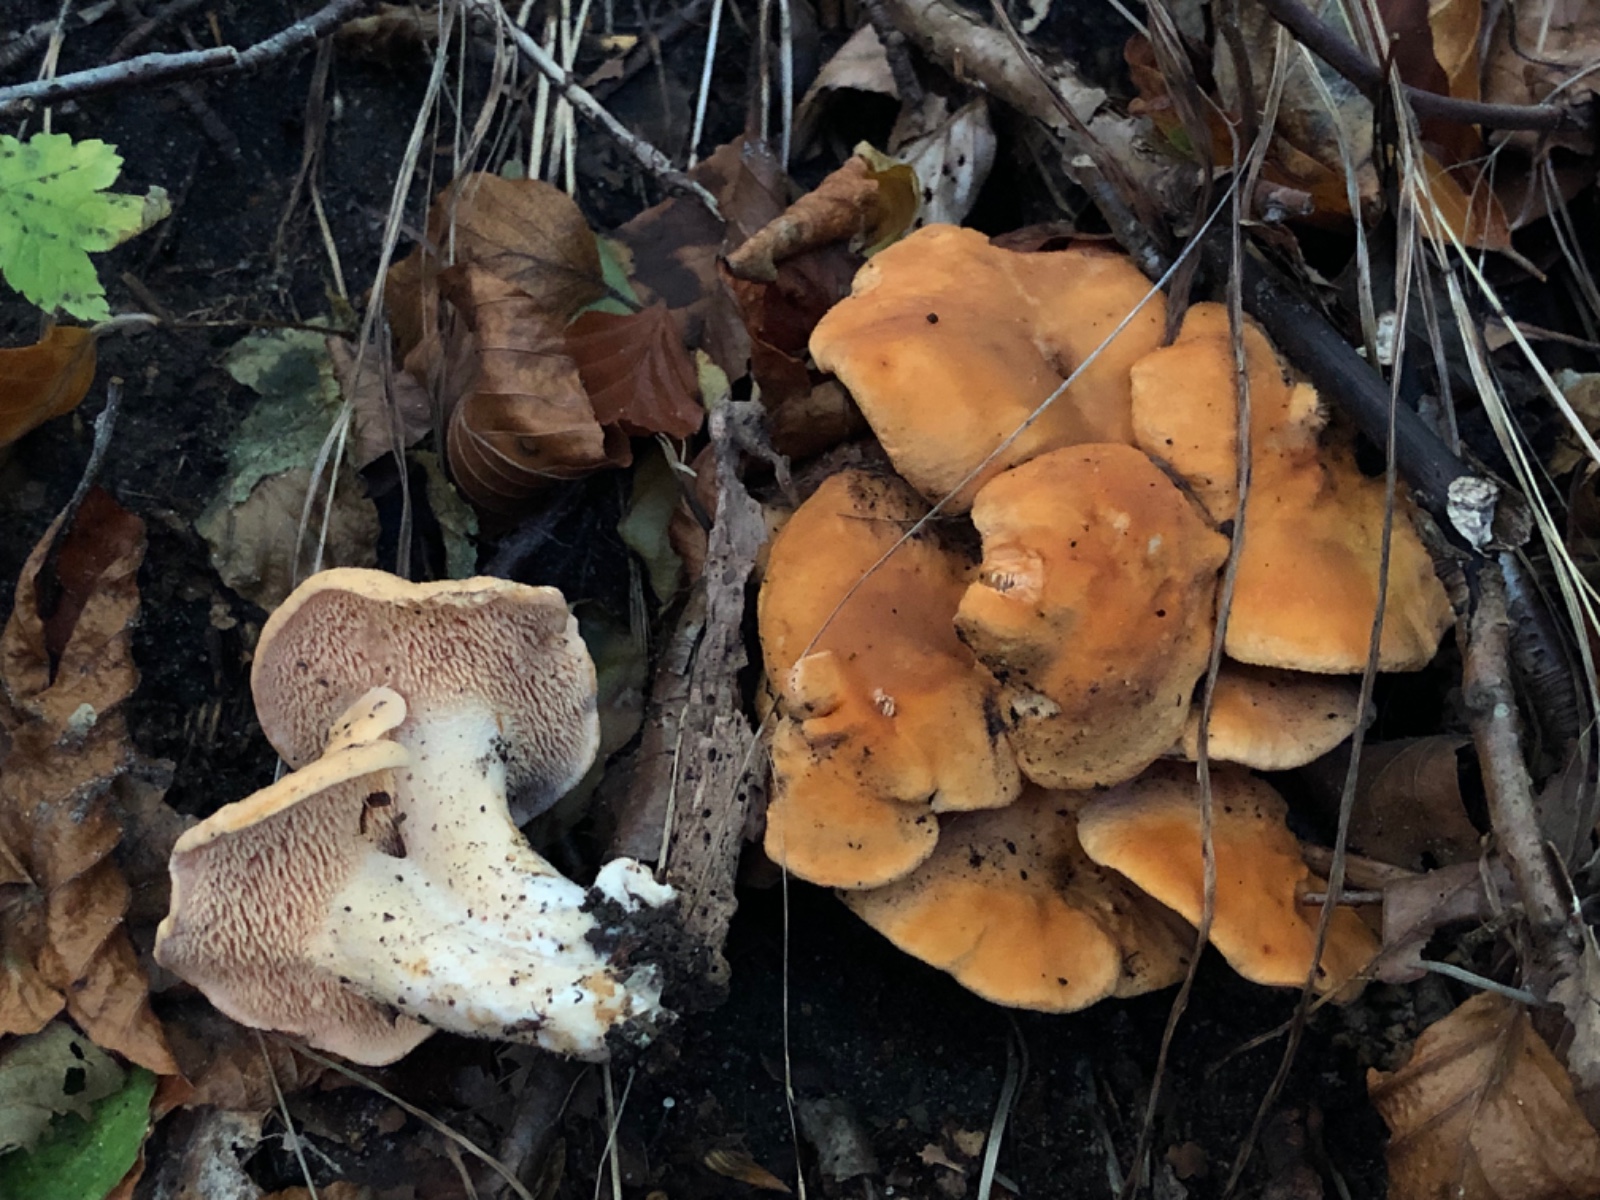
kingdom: Fungi
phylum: Basidiomycota
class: Agaricomycetes
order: Cantharellales
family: Hydnaceae
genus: Hydnum
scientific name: Hydnum ellipsosporum
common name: tandet pigsvamp
